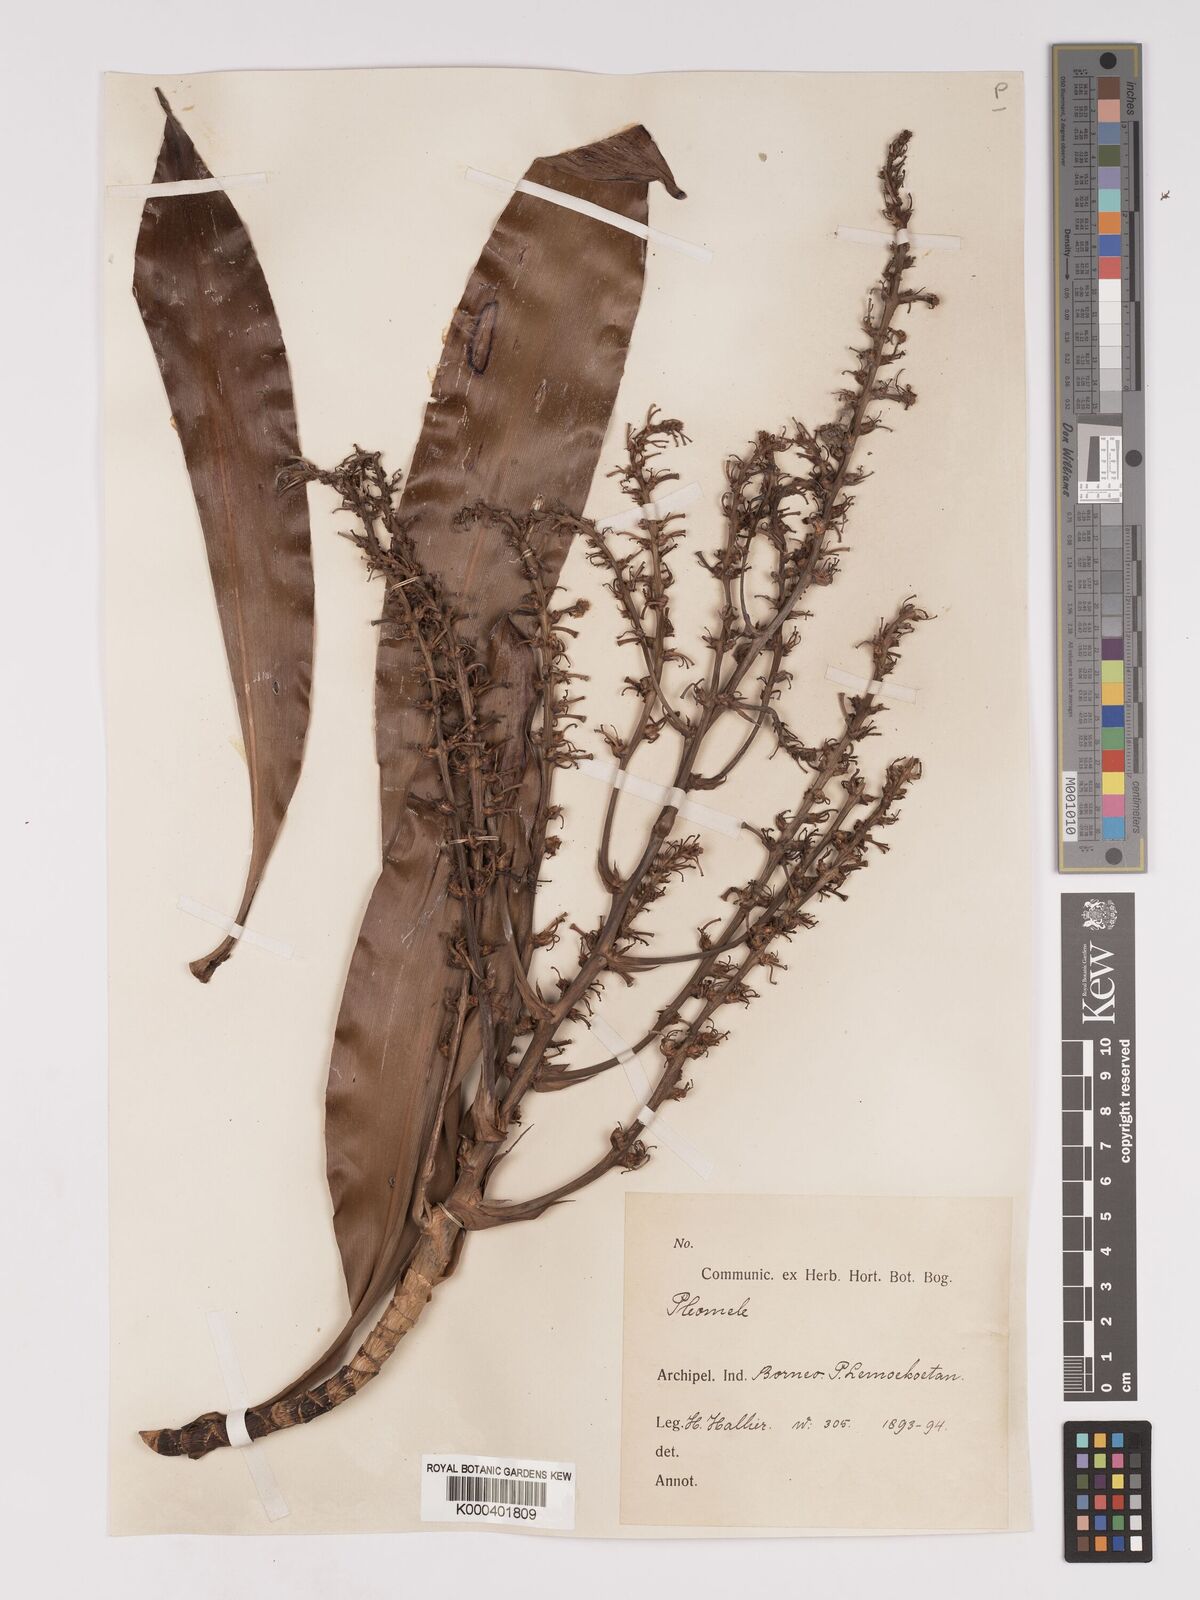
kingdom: Plantae
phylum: Tracheophyta
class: Liliopsida
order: Asparagales
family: Asparagaceae
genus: Dracaena
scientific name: Dracaena
